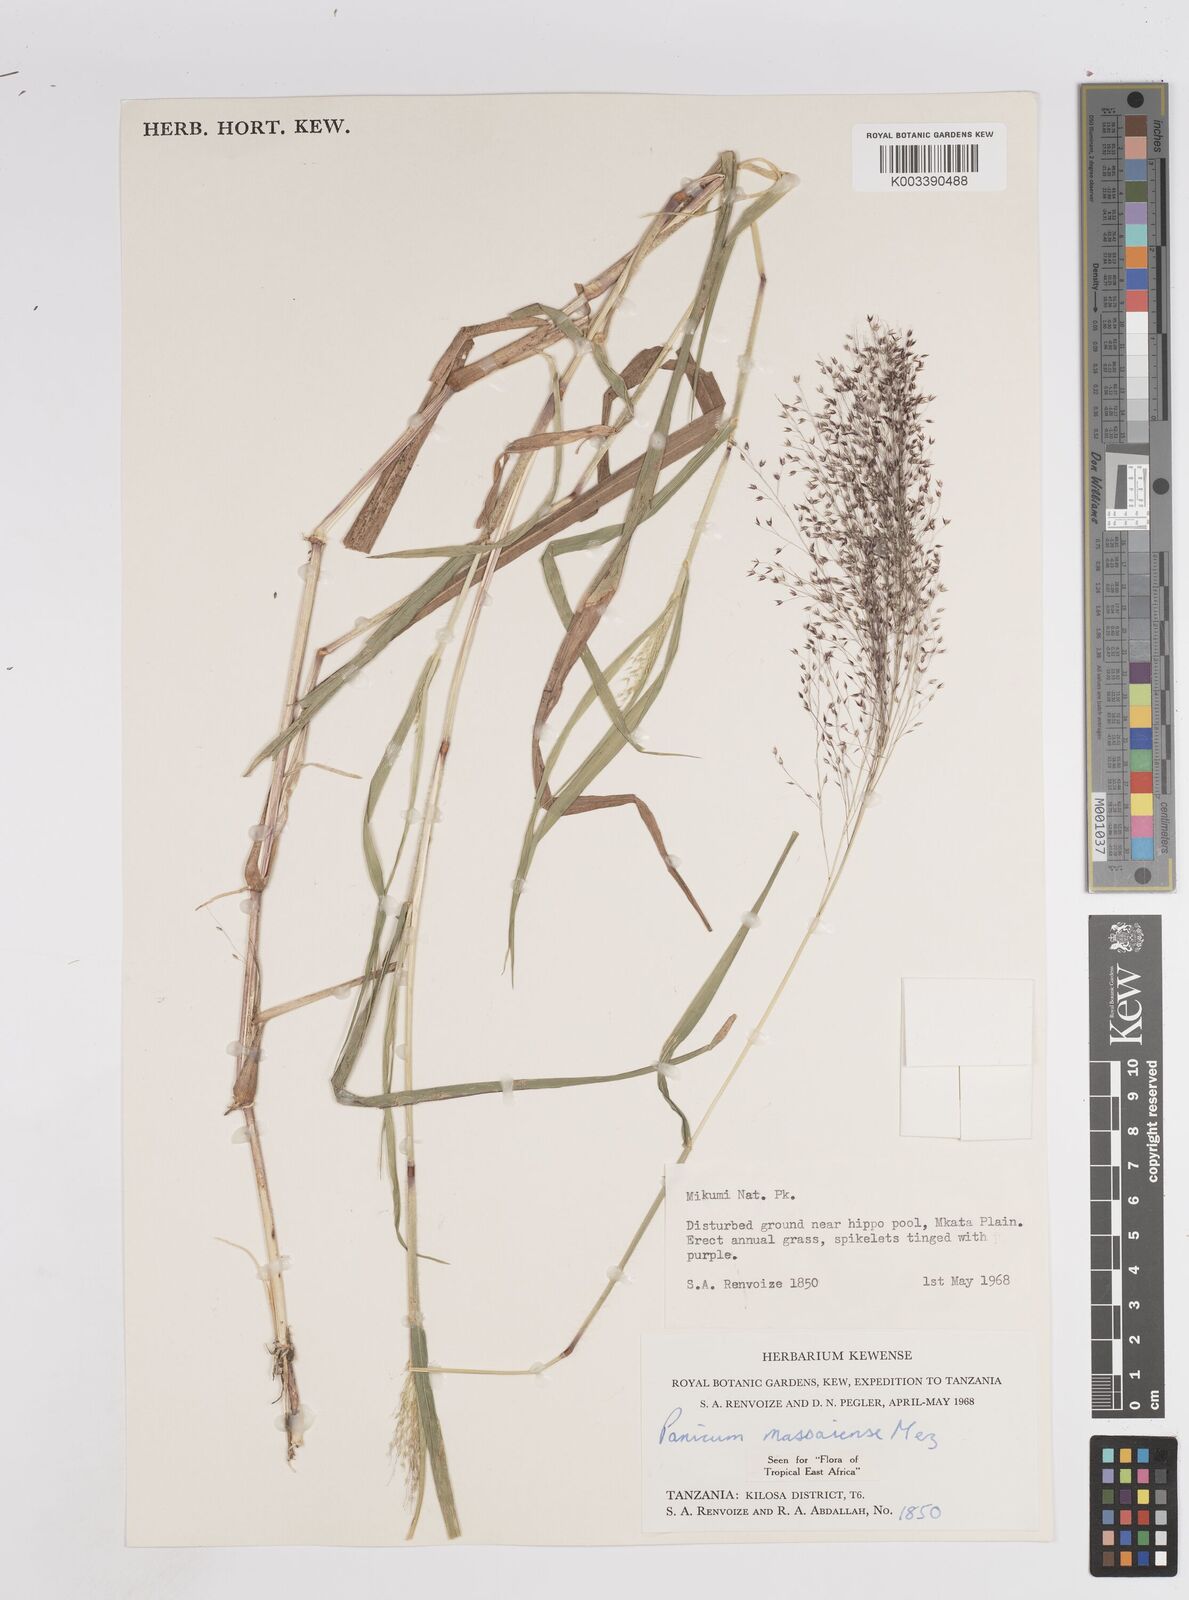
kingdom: Plantae
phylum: Tracheophyta
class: Liliopsida
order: Poales
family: Poaceae
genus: Panicum
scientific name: Panicum massaiense
